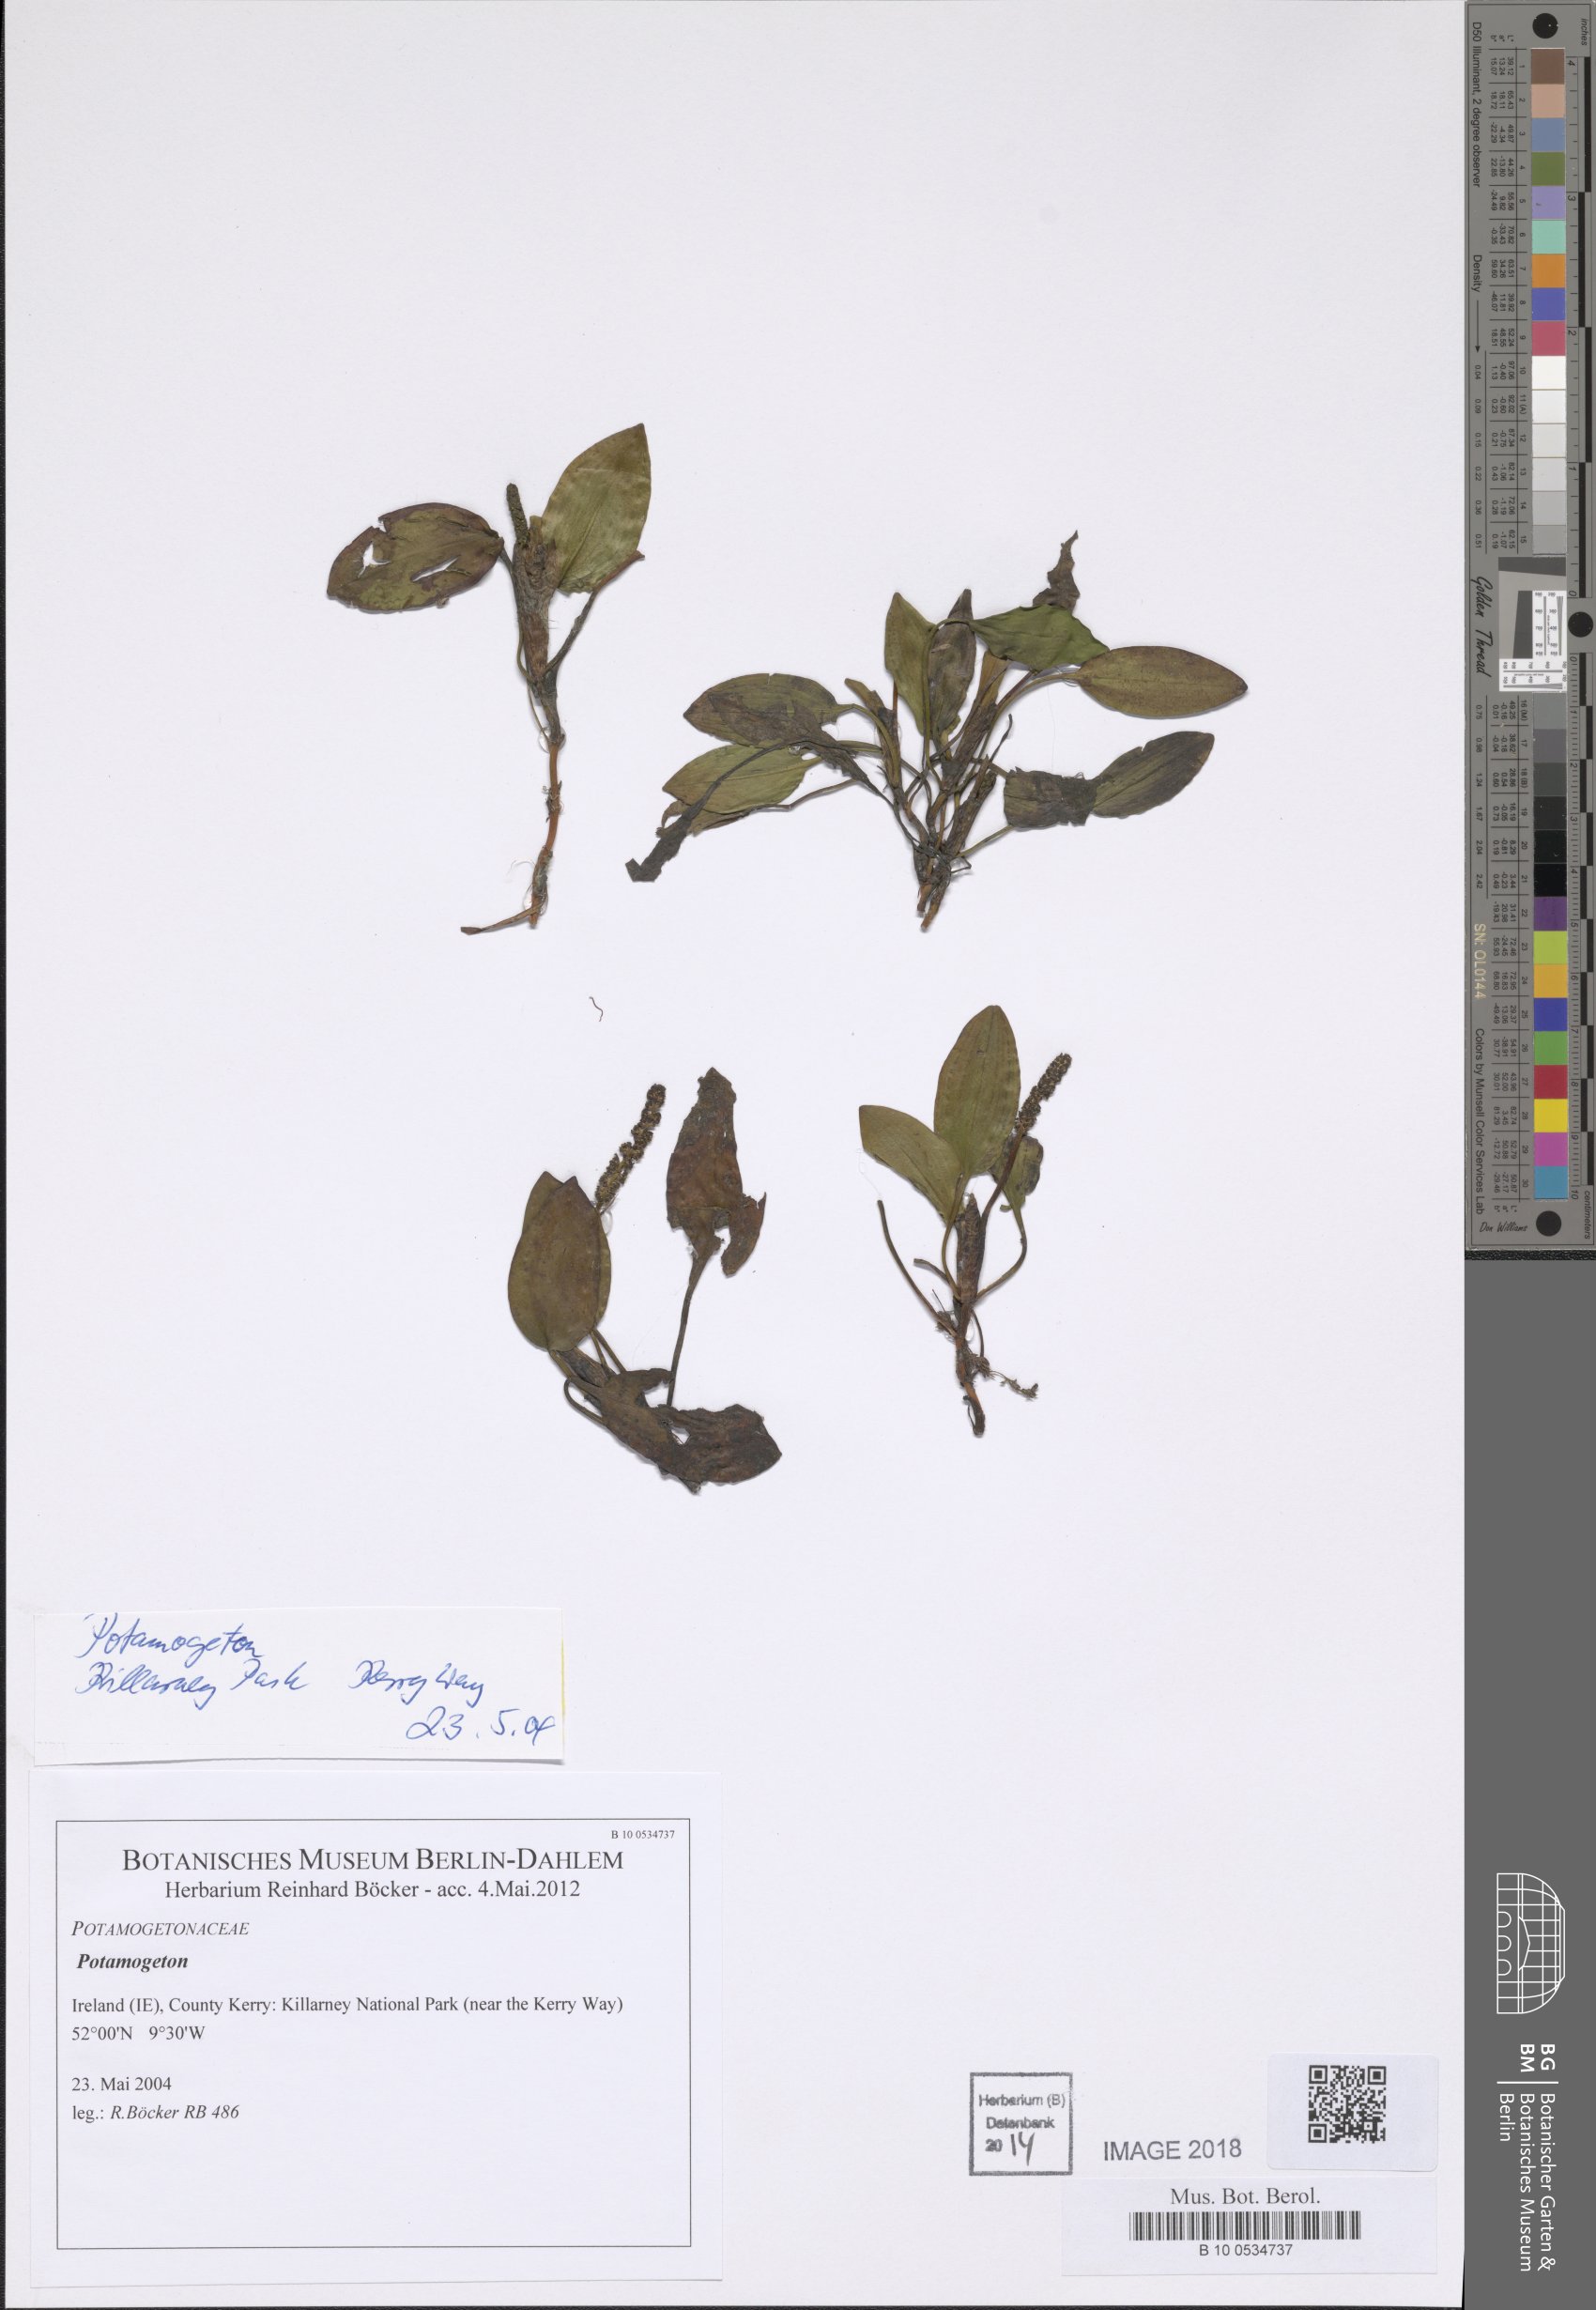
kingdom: Plantae
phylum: Tracheophyta
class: Liliopsida
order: Alismatales
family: Potamogetonaceae
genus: Potamogeton
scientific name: Potamogeton
